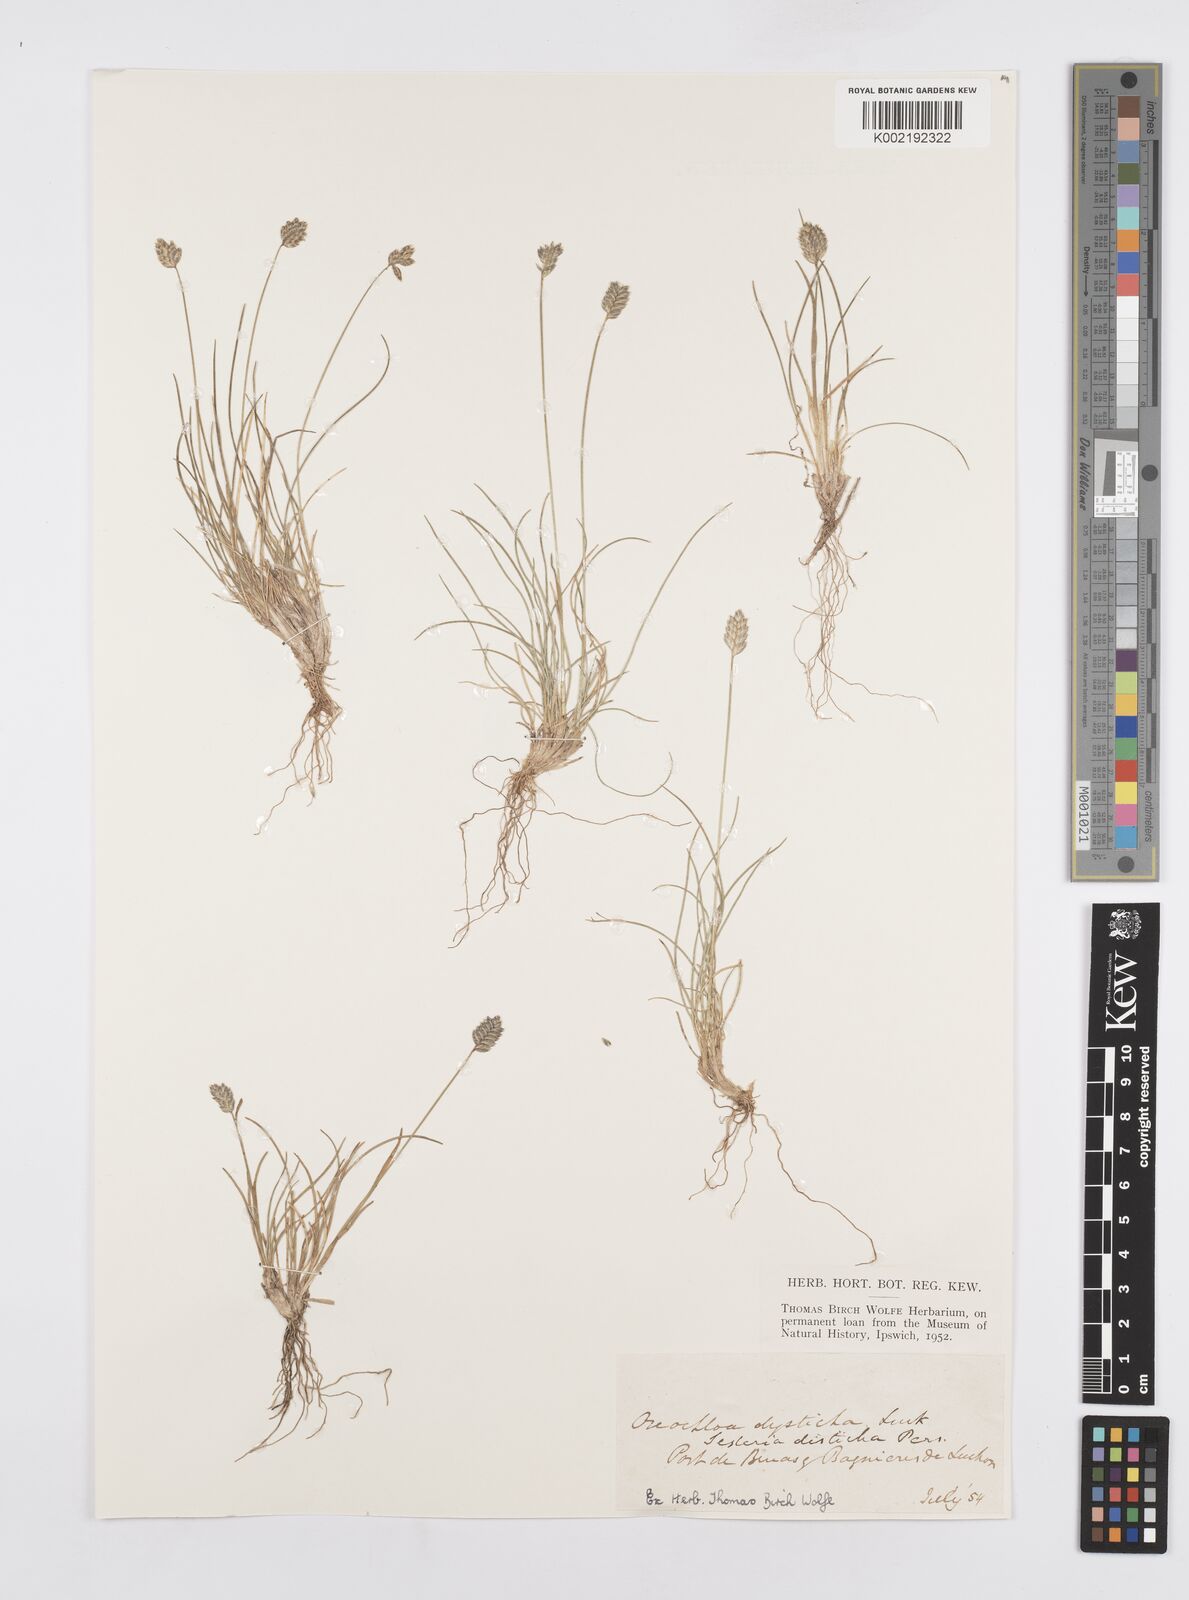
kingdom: Plantae
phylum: Tracheophyta
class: Liliopsida
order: Poales
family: Poaceae
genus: Oreochloa
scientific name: Oreochloa disticha
